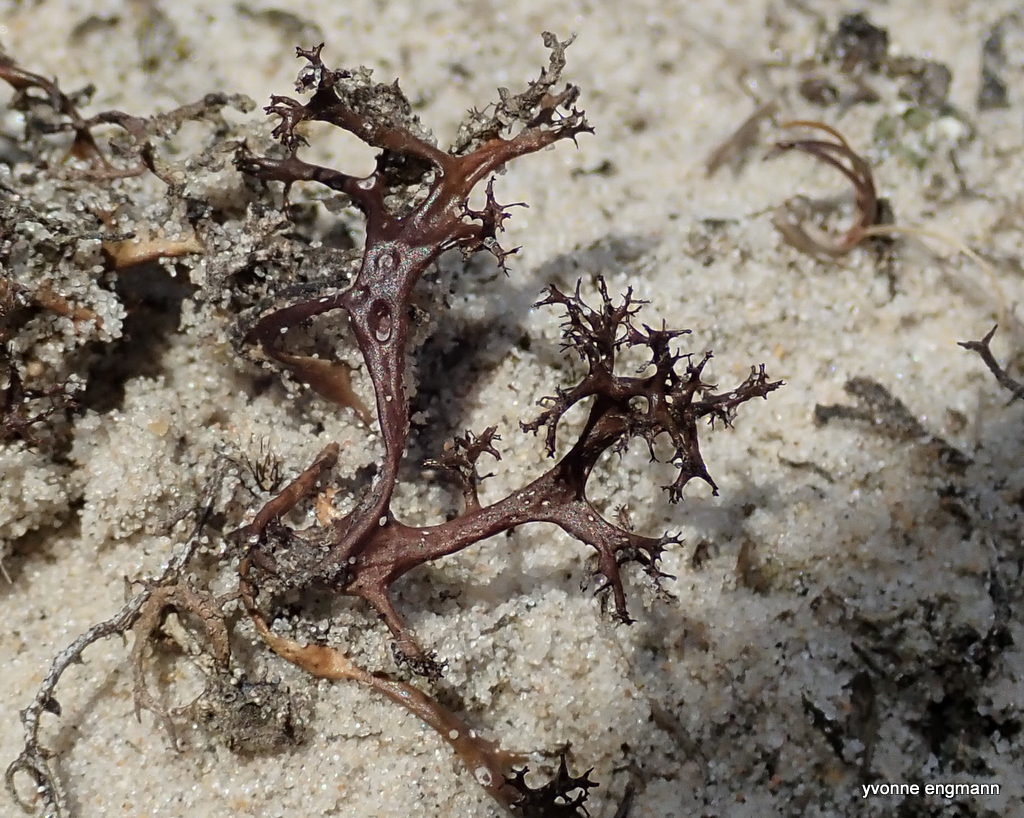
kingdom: Fungi
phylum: Ascomycota
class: Lecanoromycetes
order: Lecanorales
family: Parmeliaceae
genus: Cetraria
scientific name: Cetraria aculeata
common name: grubet tjørnelav
